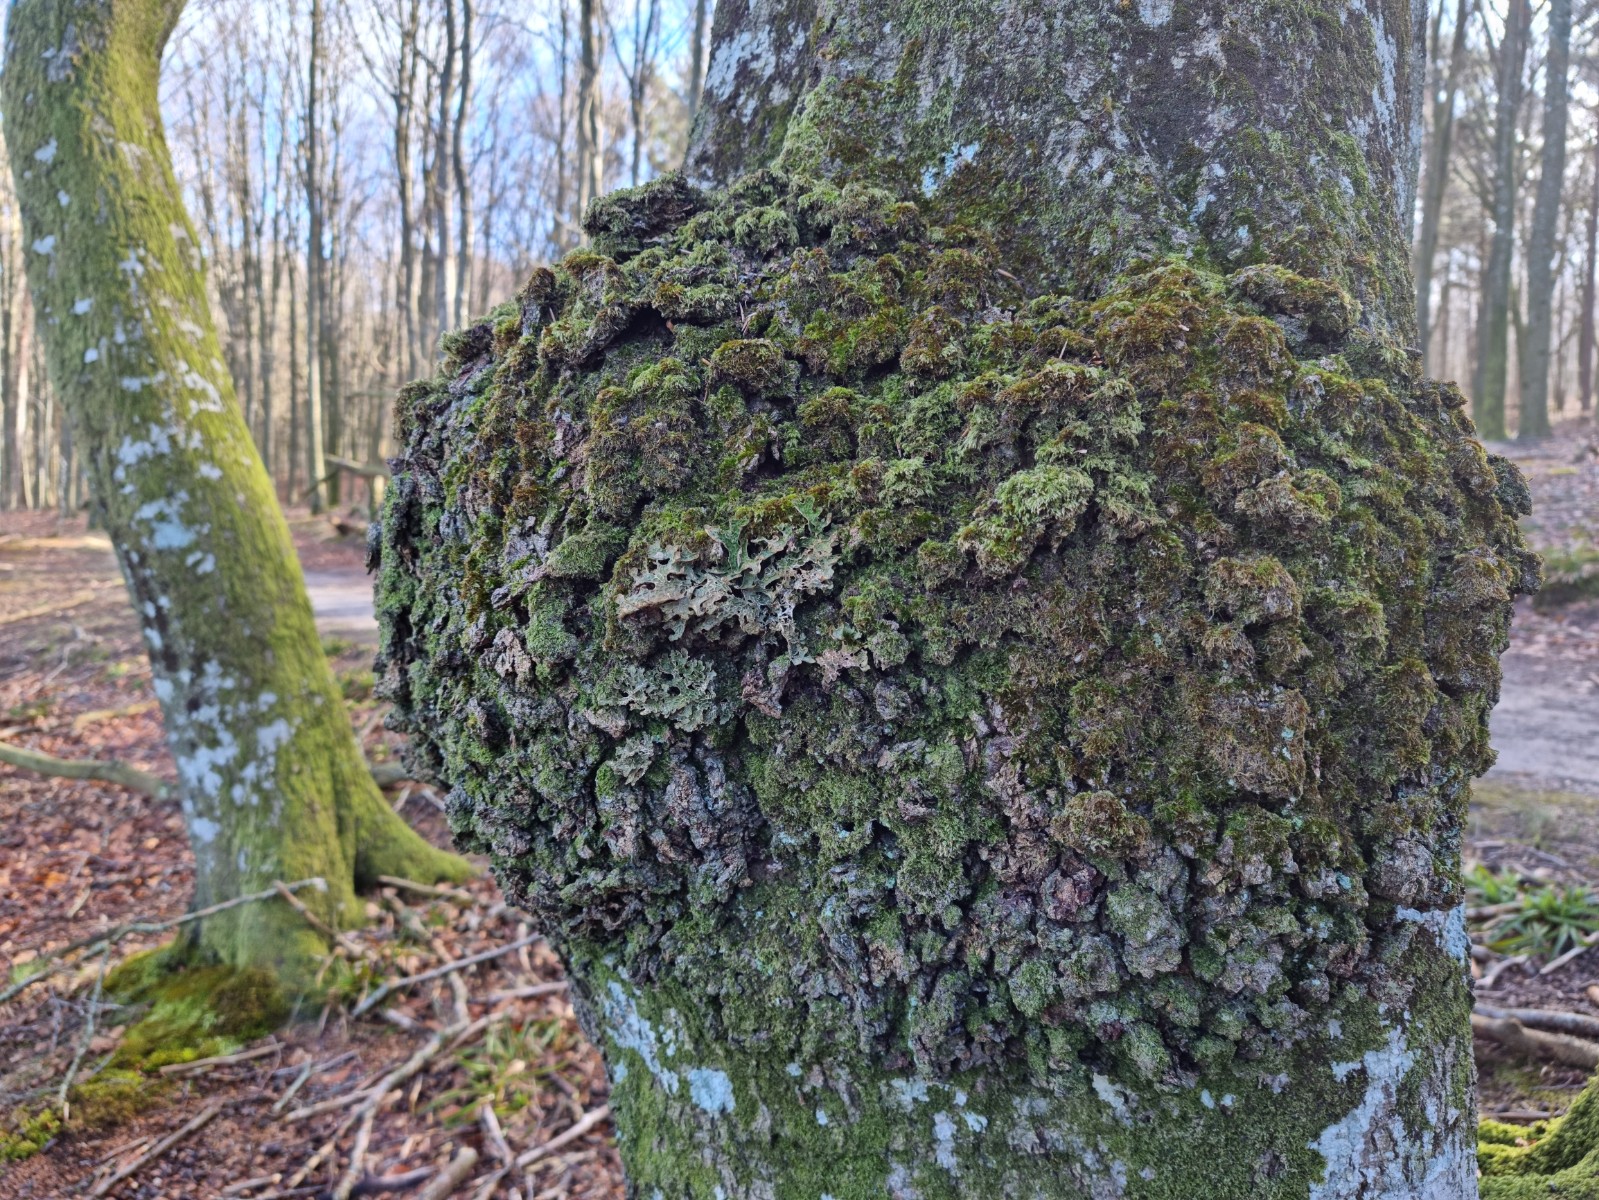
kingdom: Fungi
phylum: Ascomycota
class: Lecanoromycetes
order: Peltigerales
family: Lobariaceae
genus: Lobaria
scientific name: Lobaria pulmonaria
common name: almindelig lungelav
